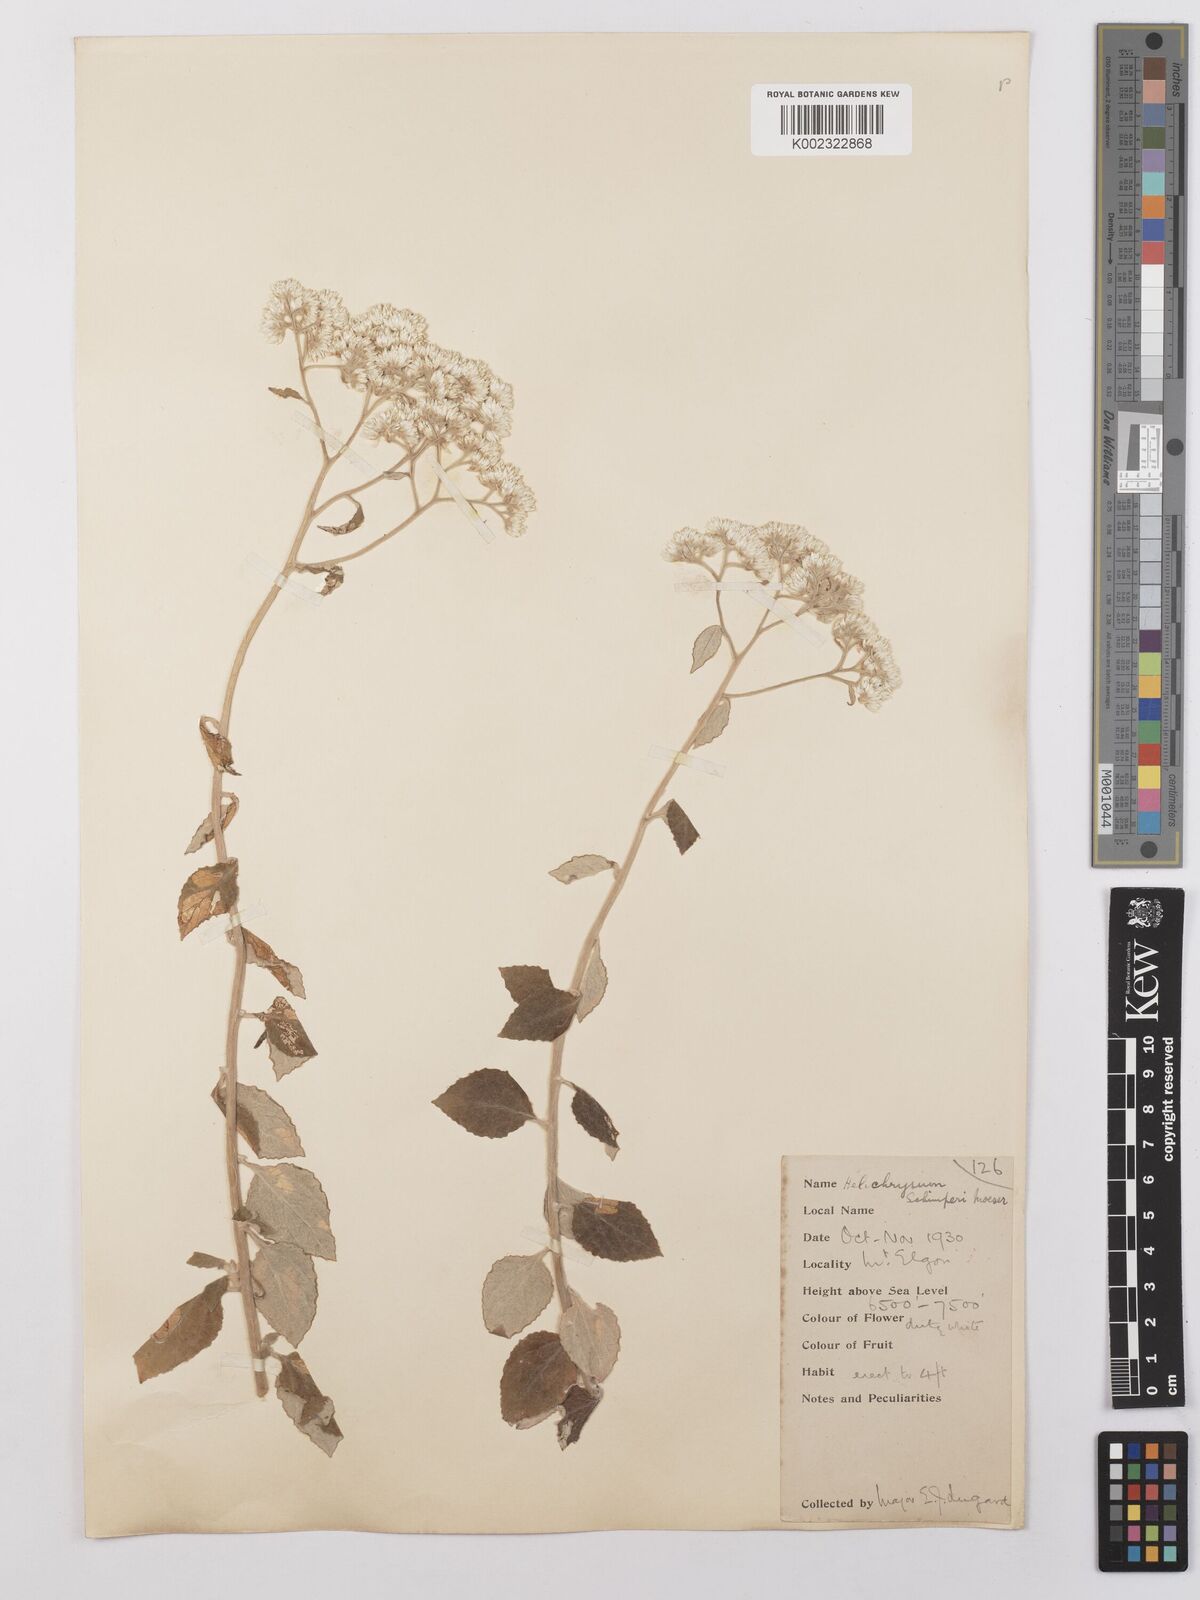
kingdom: Plantae
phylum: Tracheophyta
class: Magnoliopsida
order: Asterales
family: Asteraceae
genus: Helichrysum
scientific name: Helichrysum schimperi
